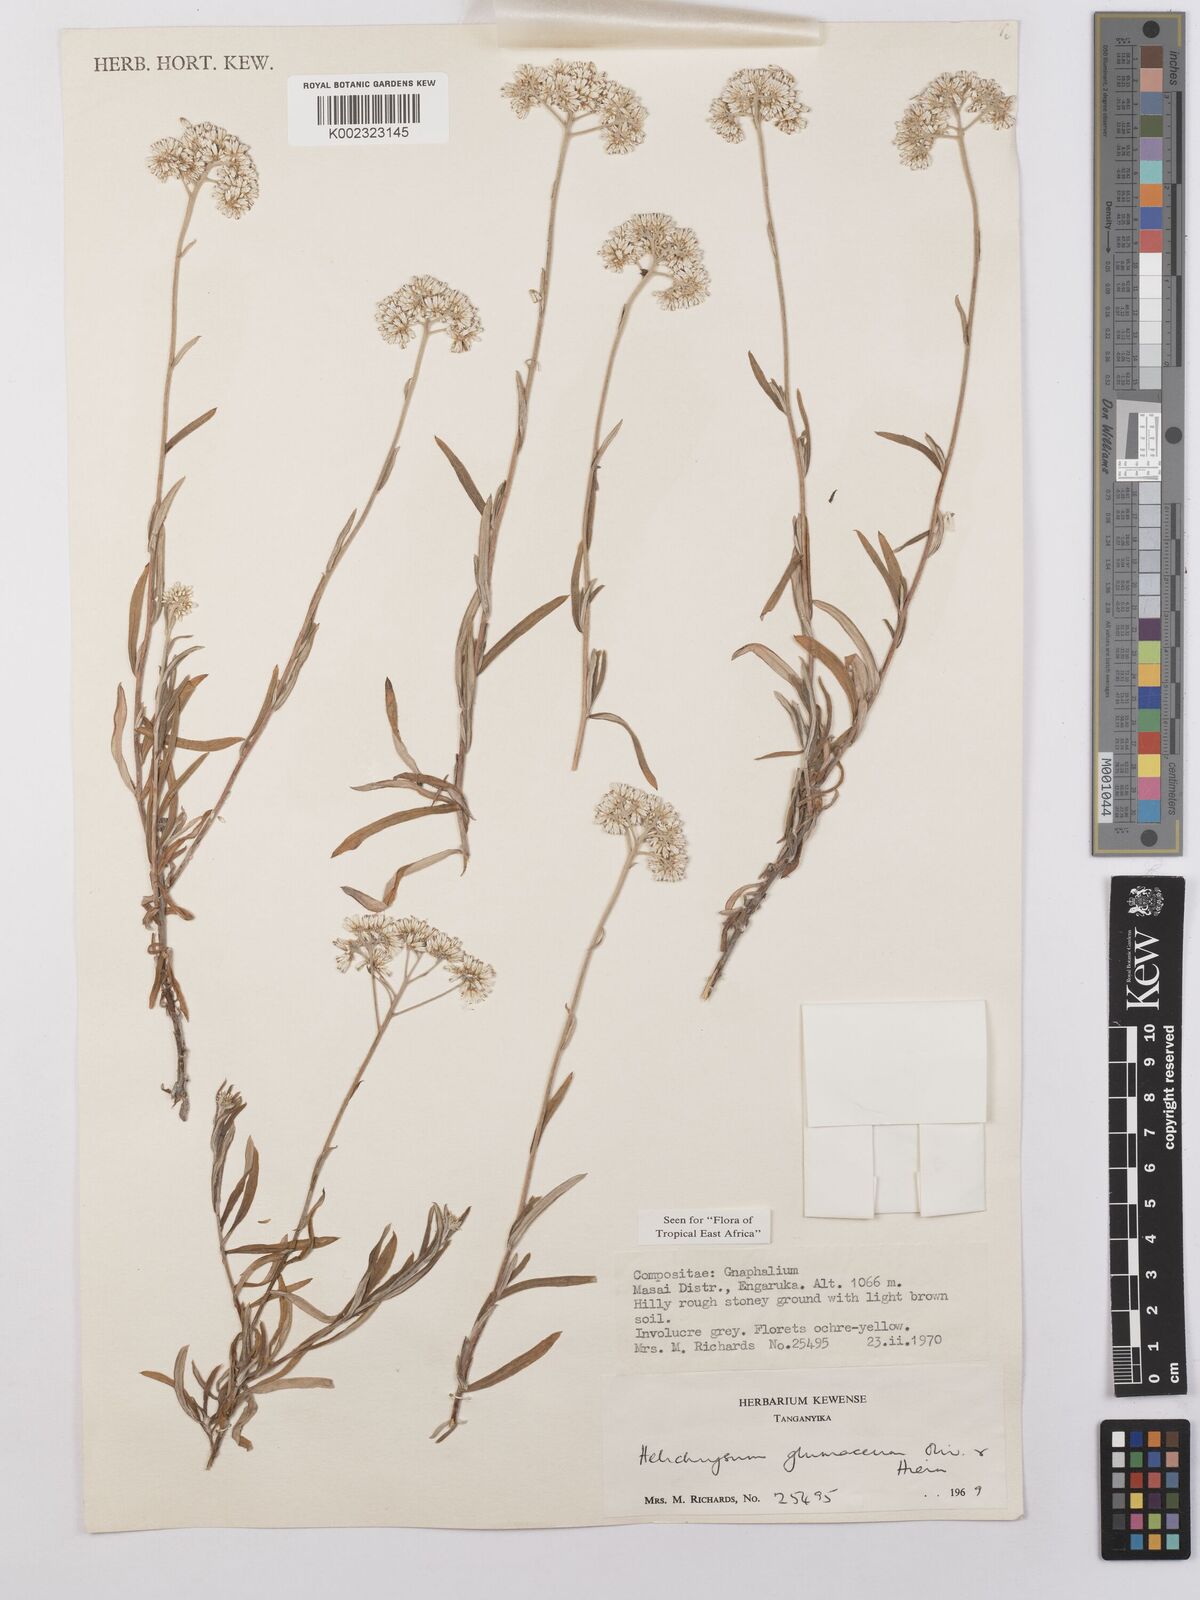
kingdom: Plantae
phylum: Tracheophyta
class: Magnoliopsida
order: Asterales
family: Asteraceae
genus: Helichrysum
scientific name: Helichrysum glumaceum
